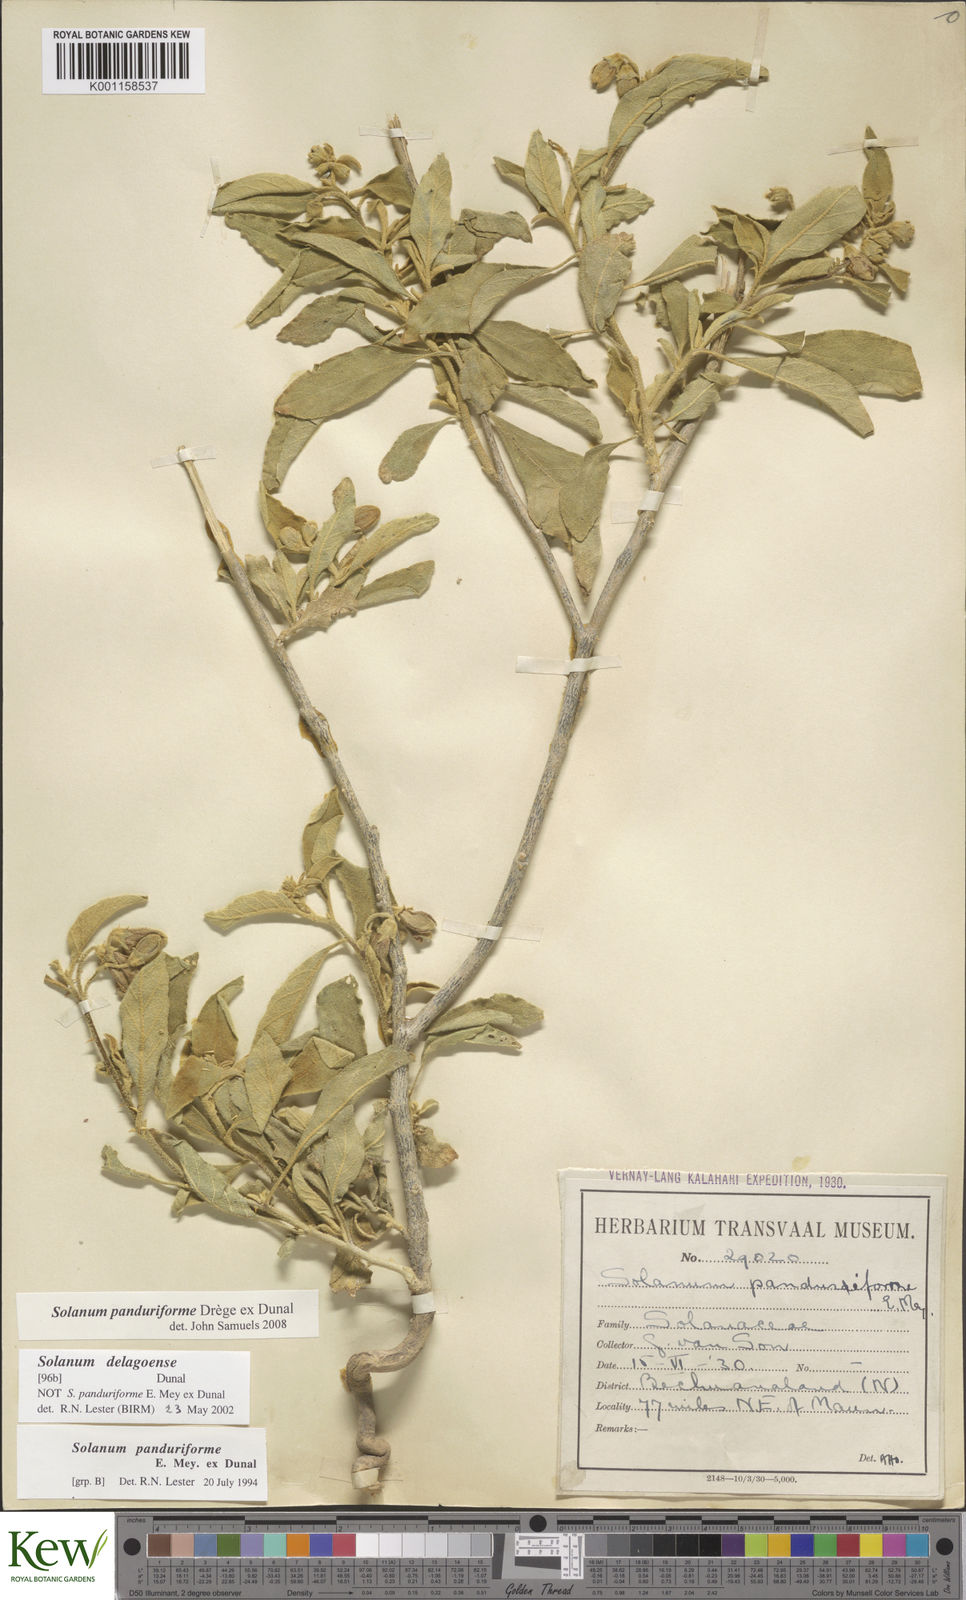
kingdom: Plantae
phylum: Tracheophyta
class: Magnoliopsida
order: Solanales
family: Solanaceae
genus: Solanum
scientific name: Solanum campylacanthum
